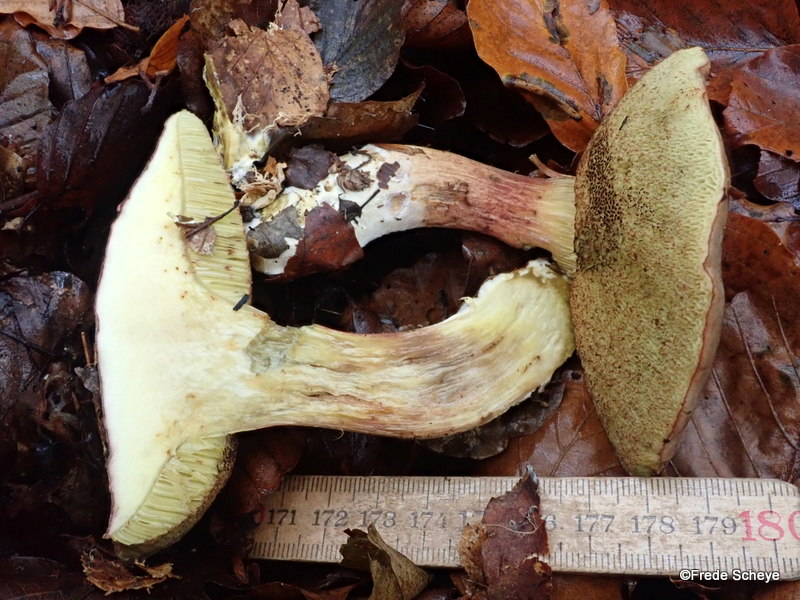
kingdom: Fungi
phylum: Basidiomycota
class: Agaricomycetes
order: Boletales
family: Boletaceae
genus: Xerocomellus
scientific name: Xerocomellus pruinatus
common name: dugget rørhat
